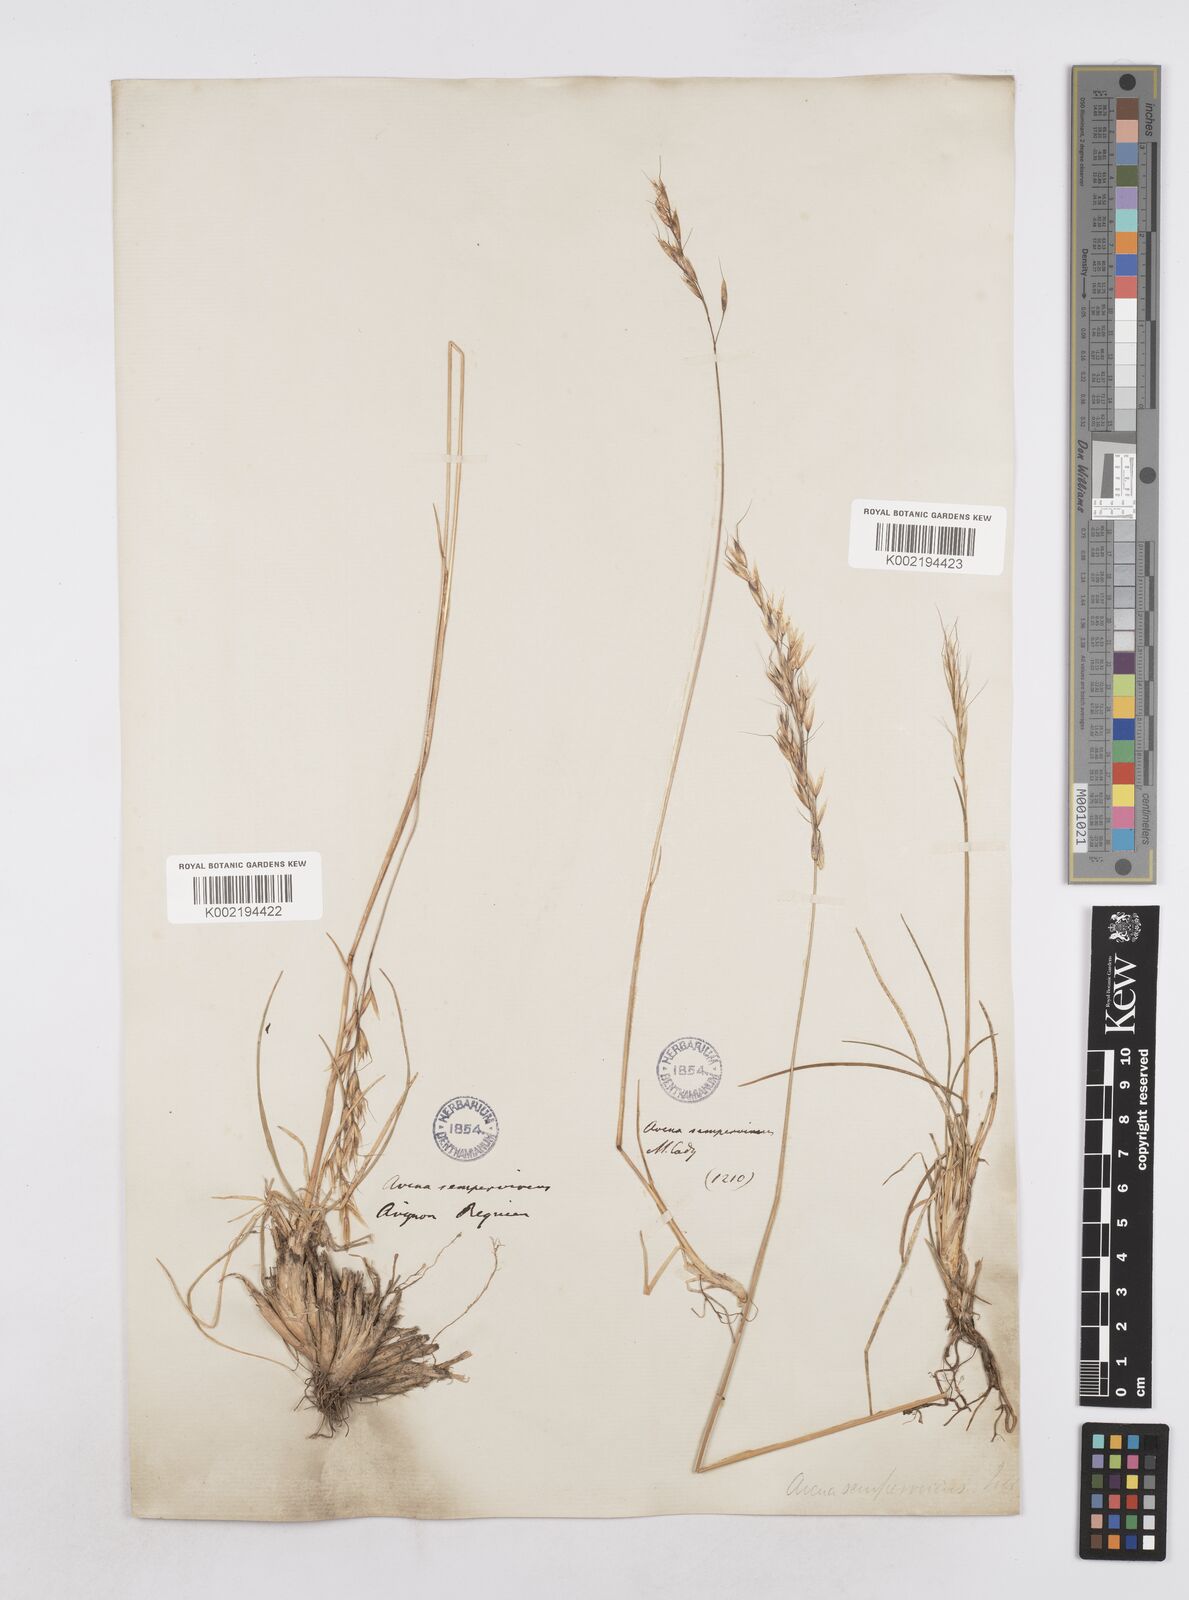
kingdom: Plantae
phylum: Tracheophyta
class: Liliopsida
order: Poales
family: Poaceae
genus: Helictotrichon
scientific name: Helictotrichon sempervirens
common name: Blue oat-grass
